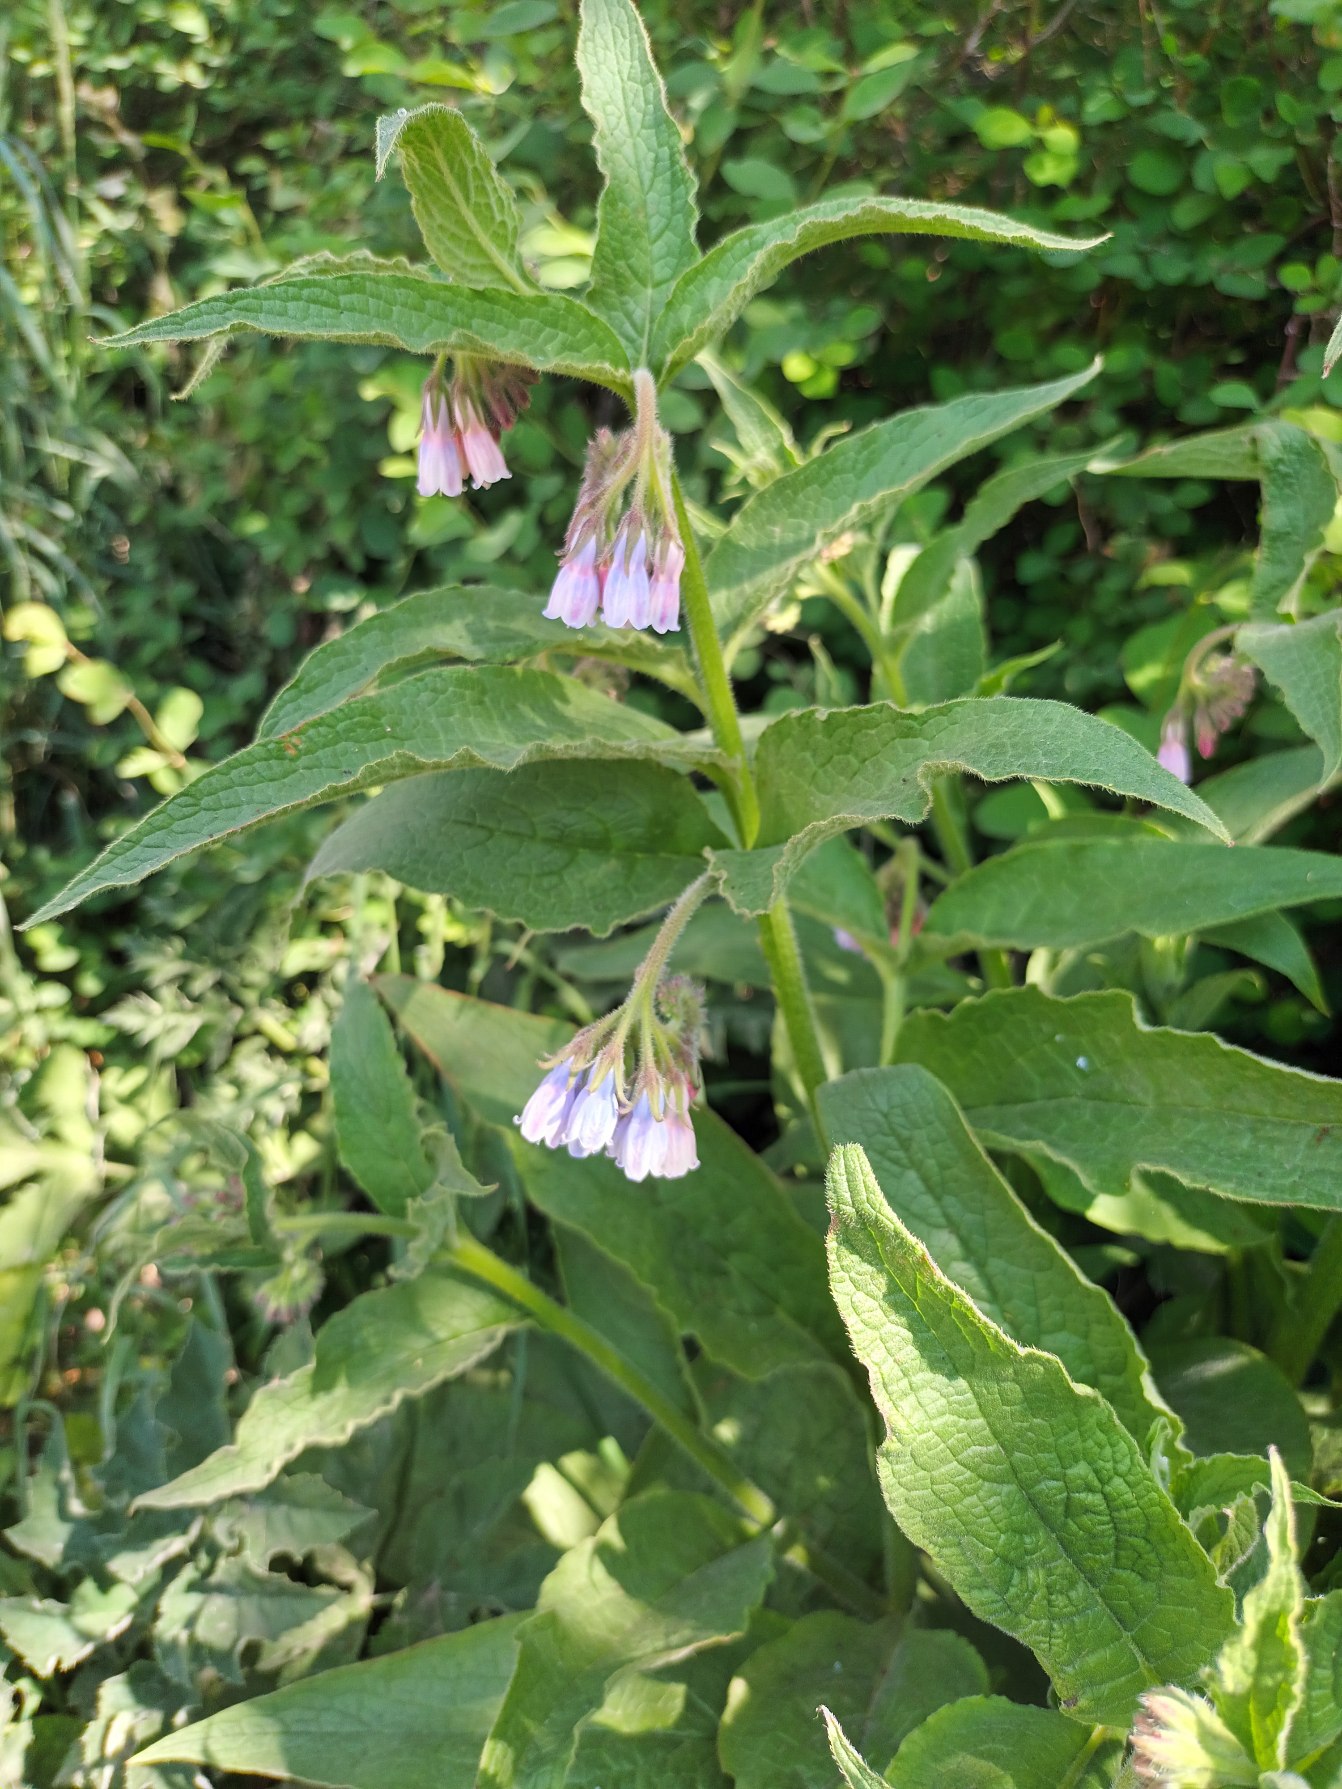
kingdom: Plantae
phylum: Tracheophyta
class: Magnoliopsida
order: Boraginales
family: Boraginaceae
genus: Symphytum
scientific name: Symphytum uplandicum
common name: Foder-kulsukker
